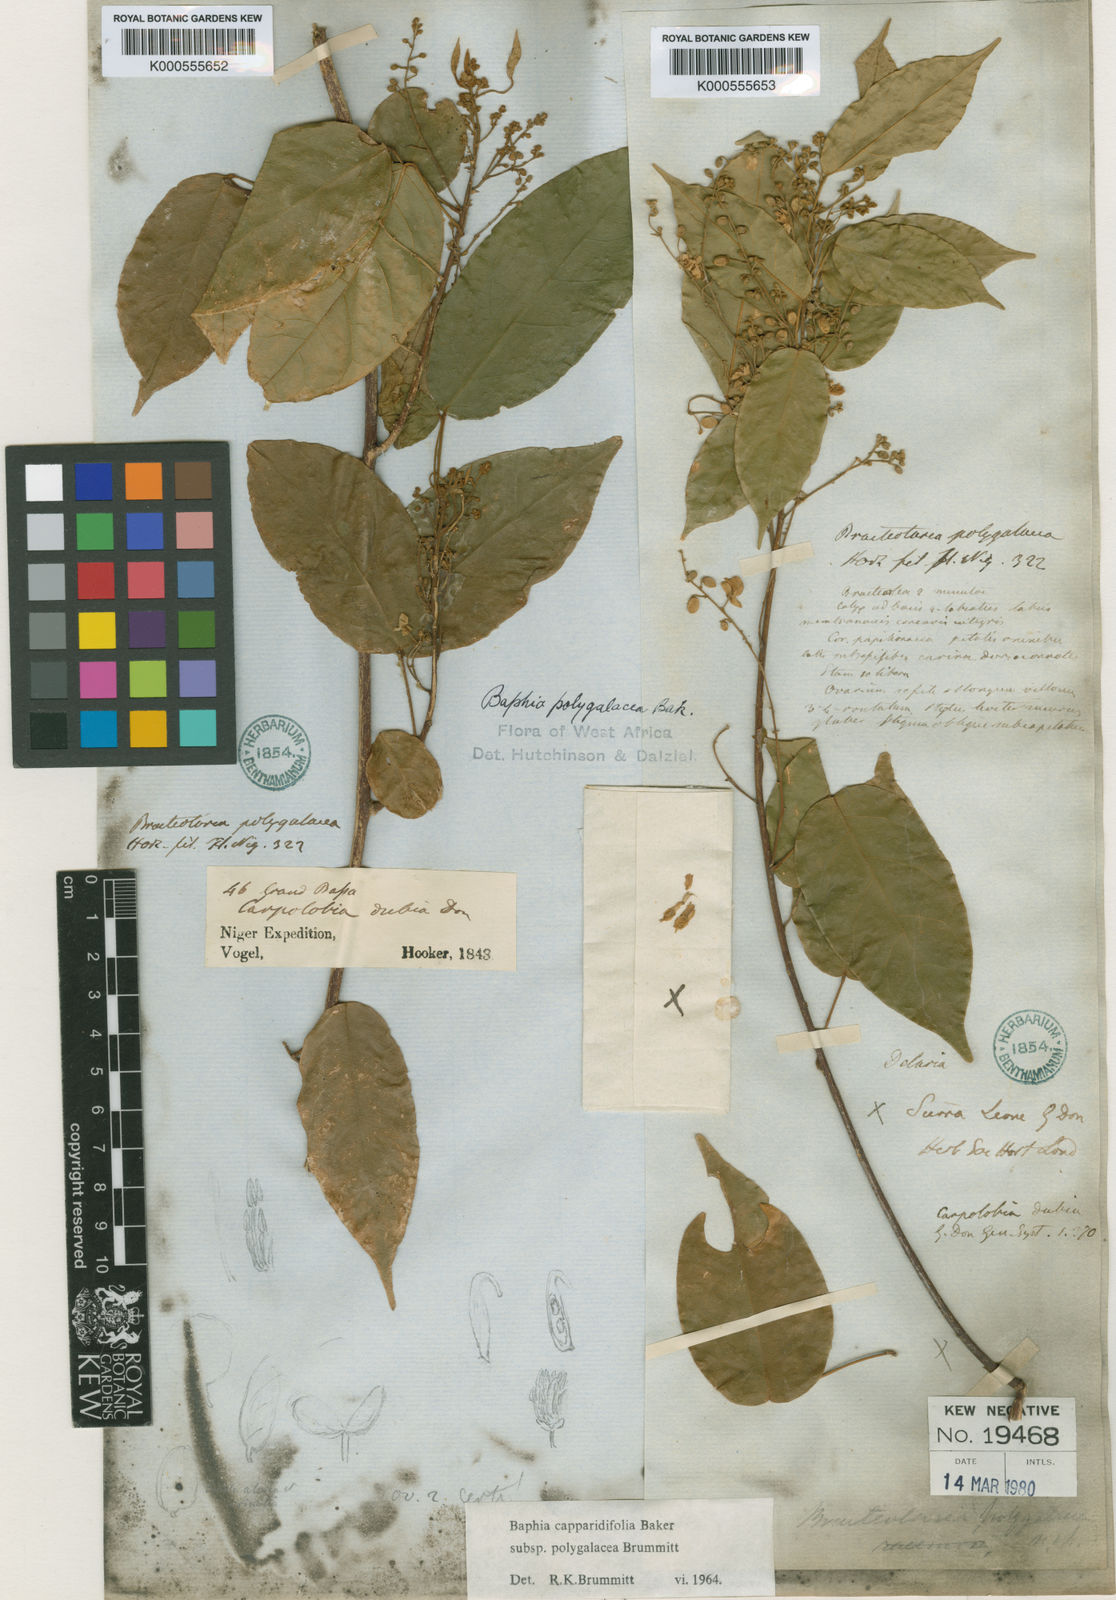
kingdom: Plantae
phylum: Tracheophyta
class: Magnoliopsida
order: Fabales
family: Fabaceae
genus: Baphia
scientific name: Baphia capparidifolia
